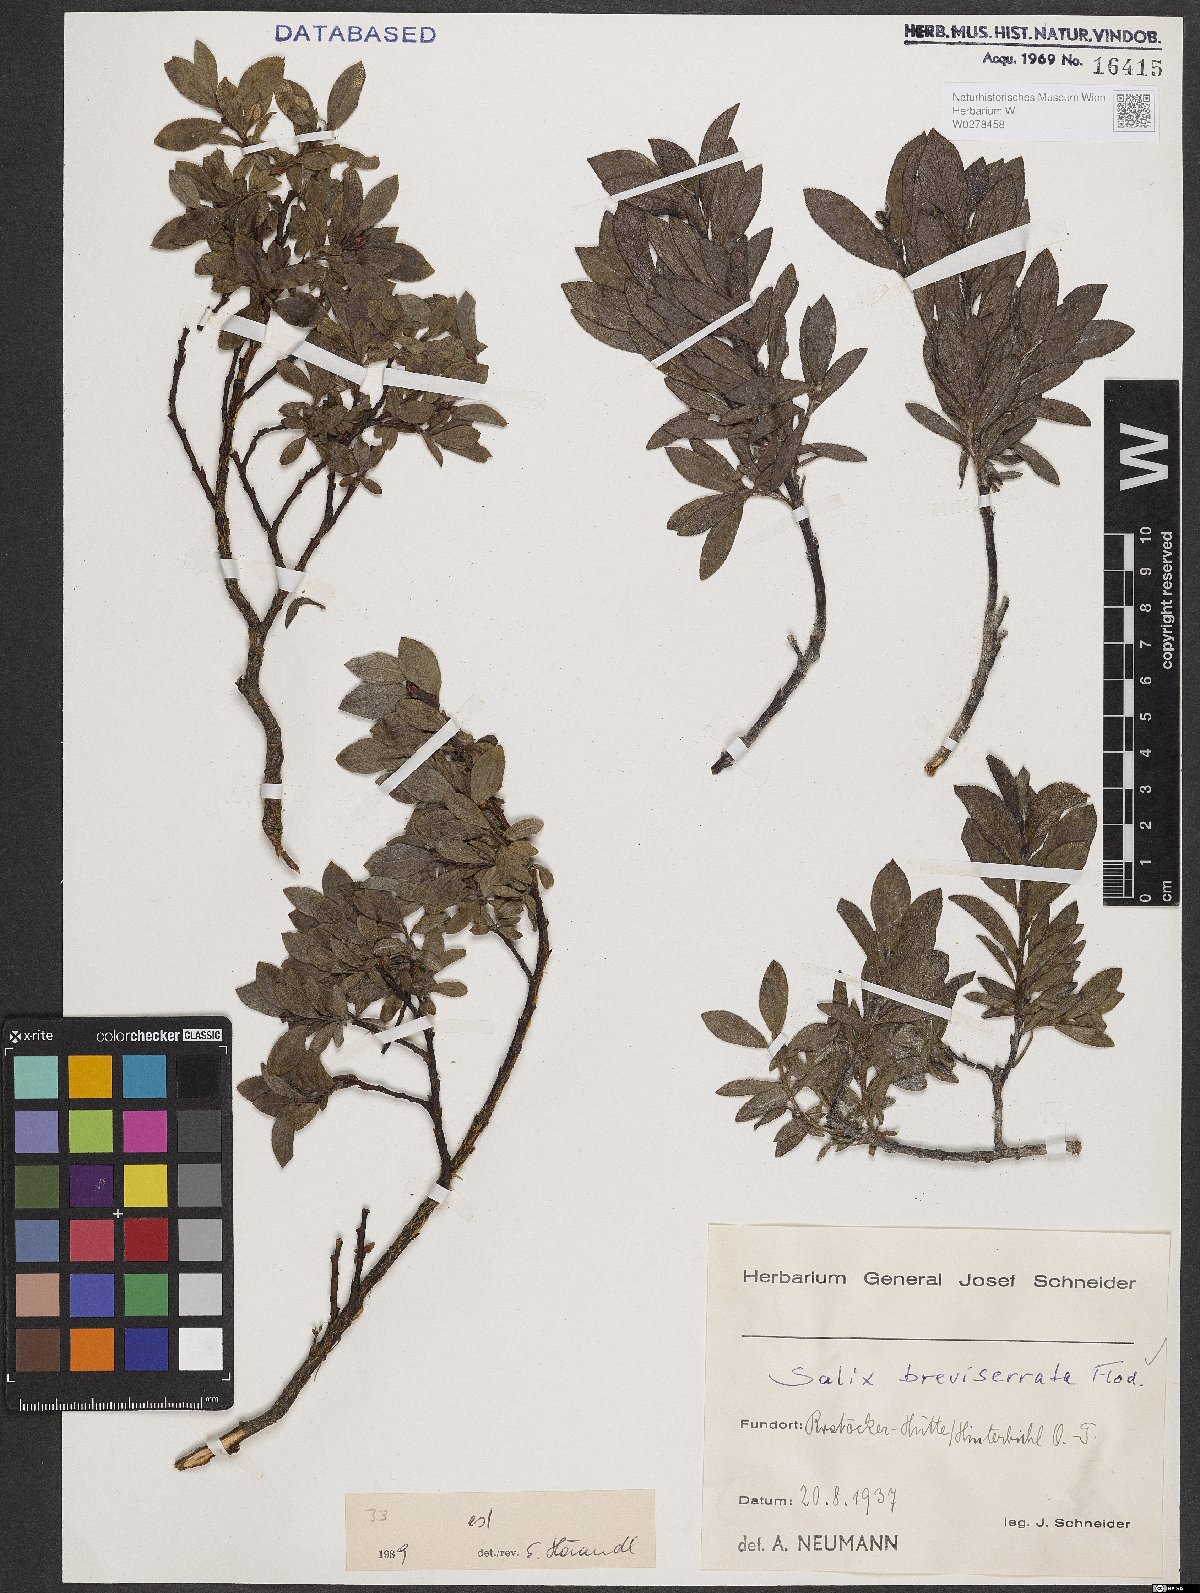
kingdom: Plantae
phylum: Tracheophyta
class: Magnoliopsida
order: Malpighiales
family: Salicaceae
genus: Salix
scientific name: Salix breviserrata
